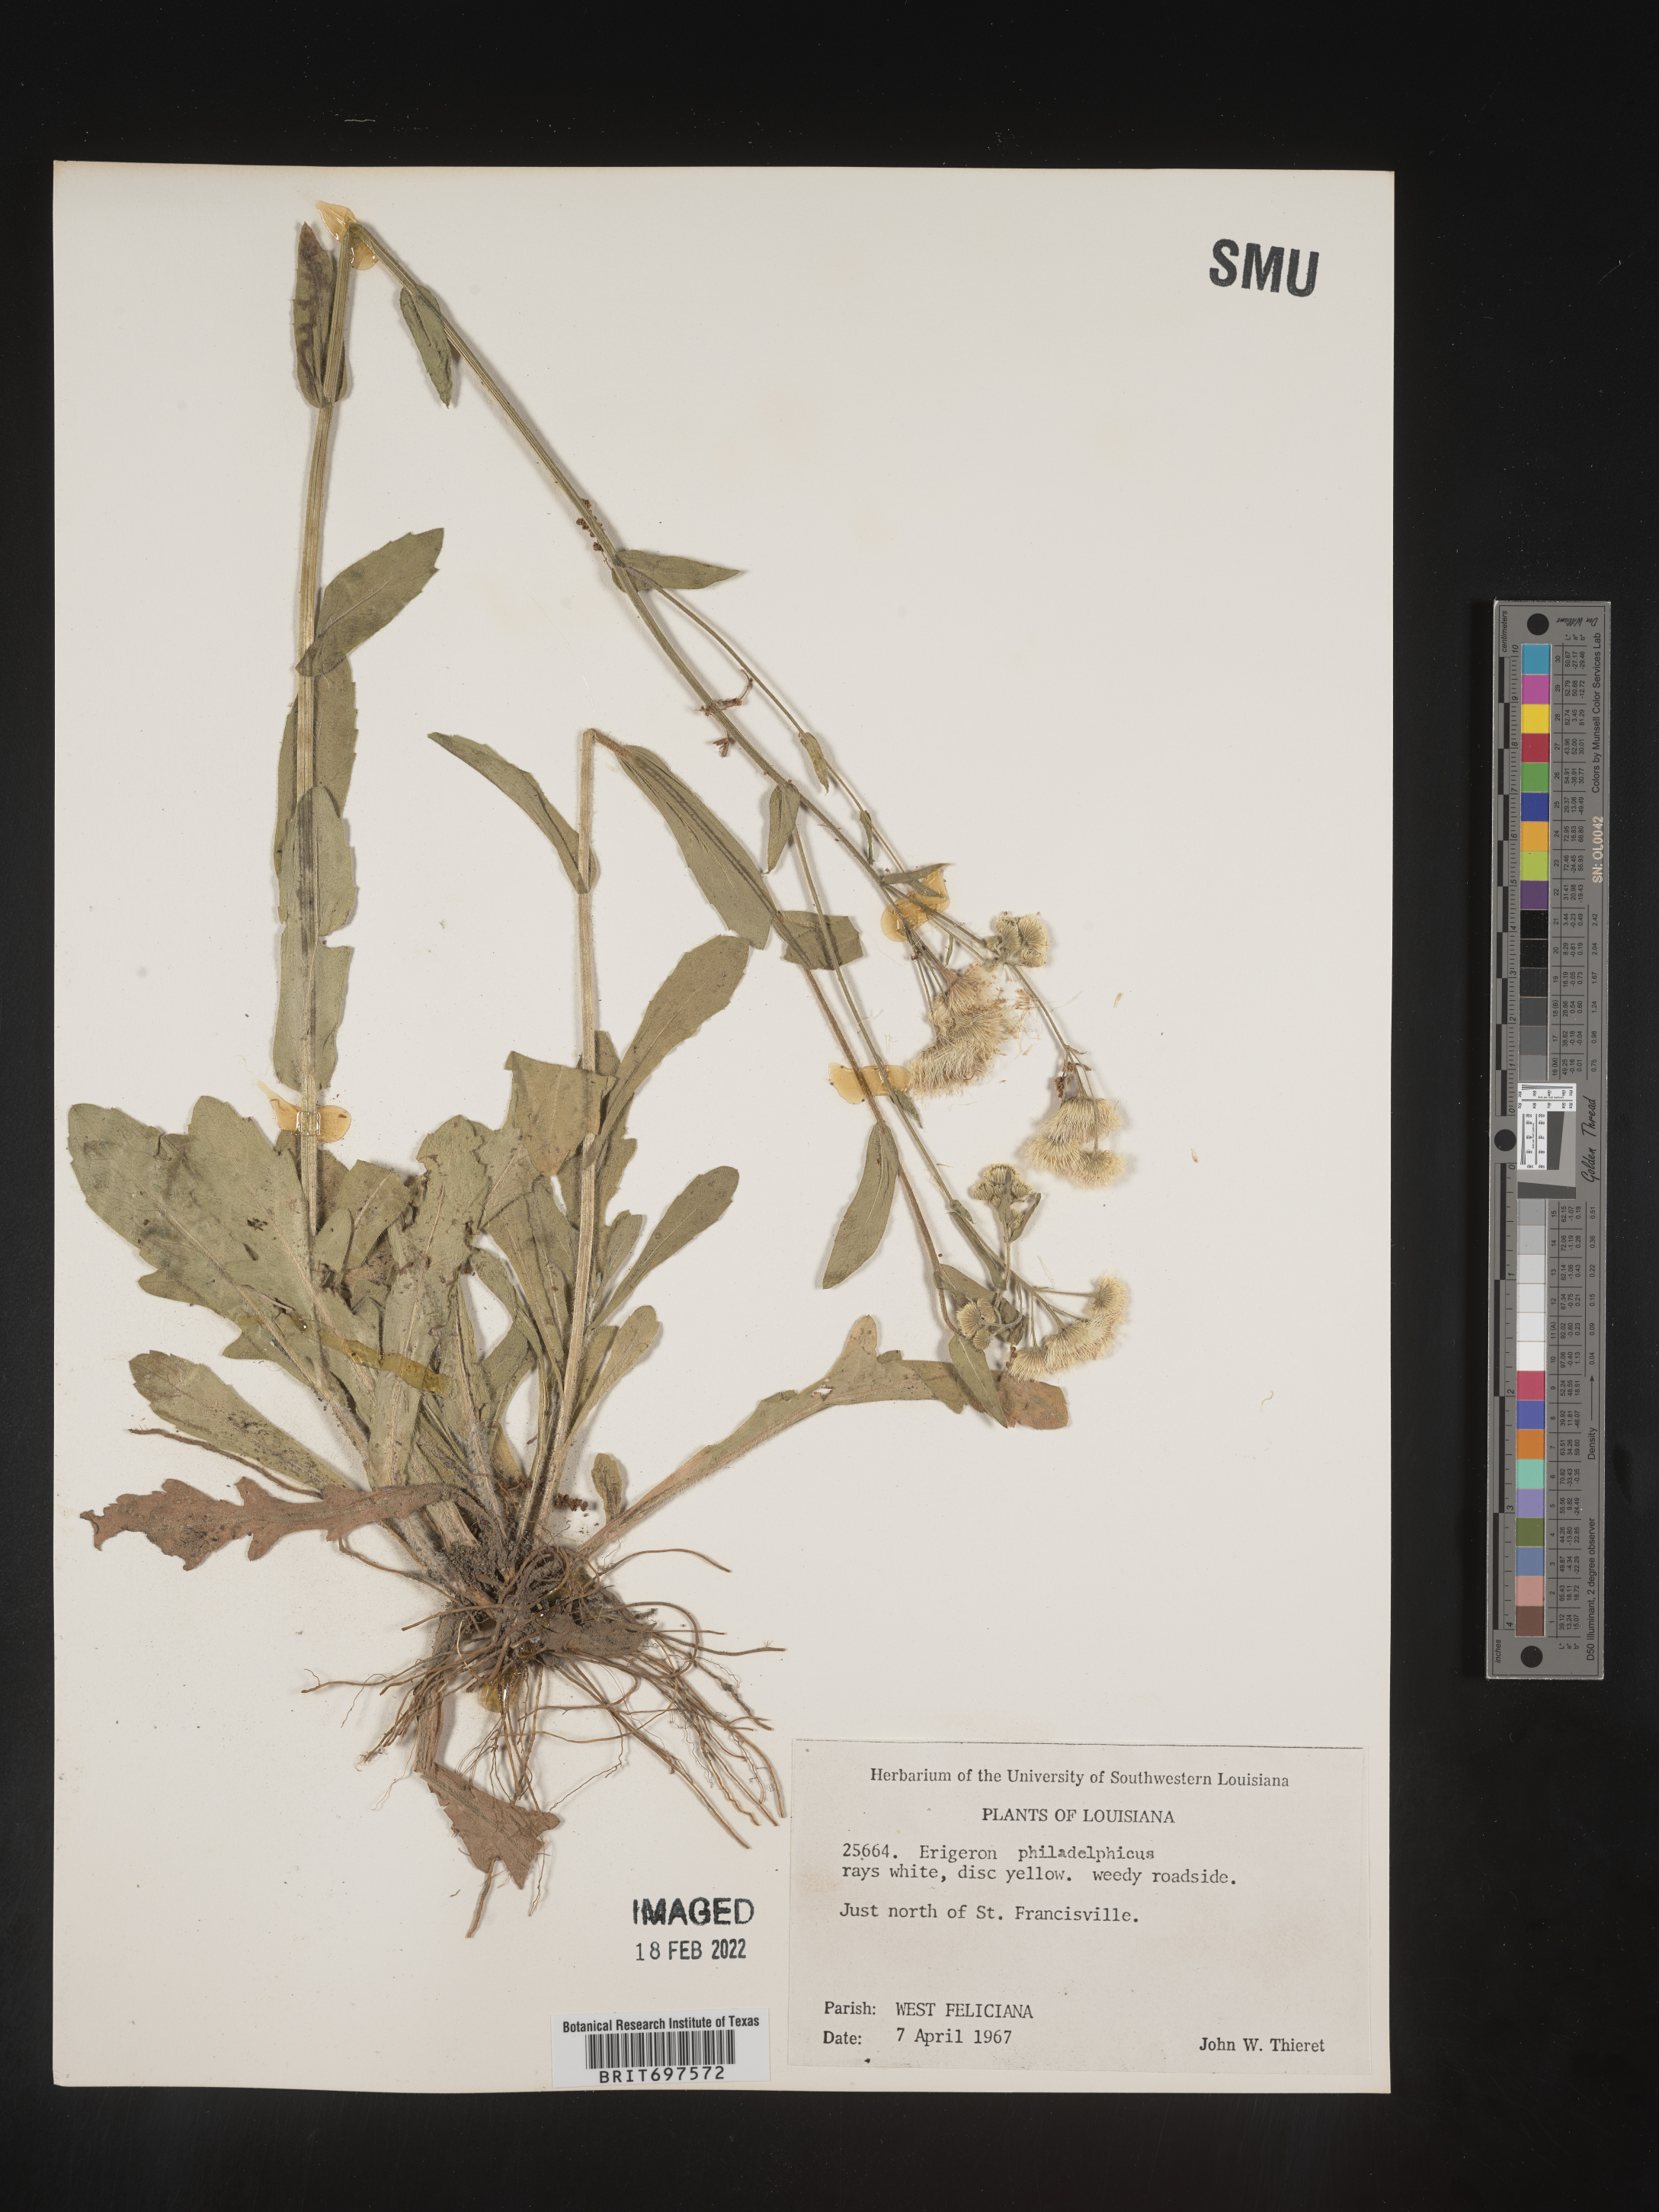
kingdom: Plantae
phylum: Tracheophyta
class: Magnoliopsida
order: Asterales
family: Asteraceae
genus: Erigeron
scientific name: Erigeron philadelphicus
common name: Robin's-plantain
